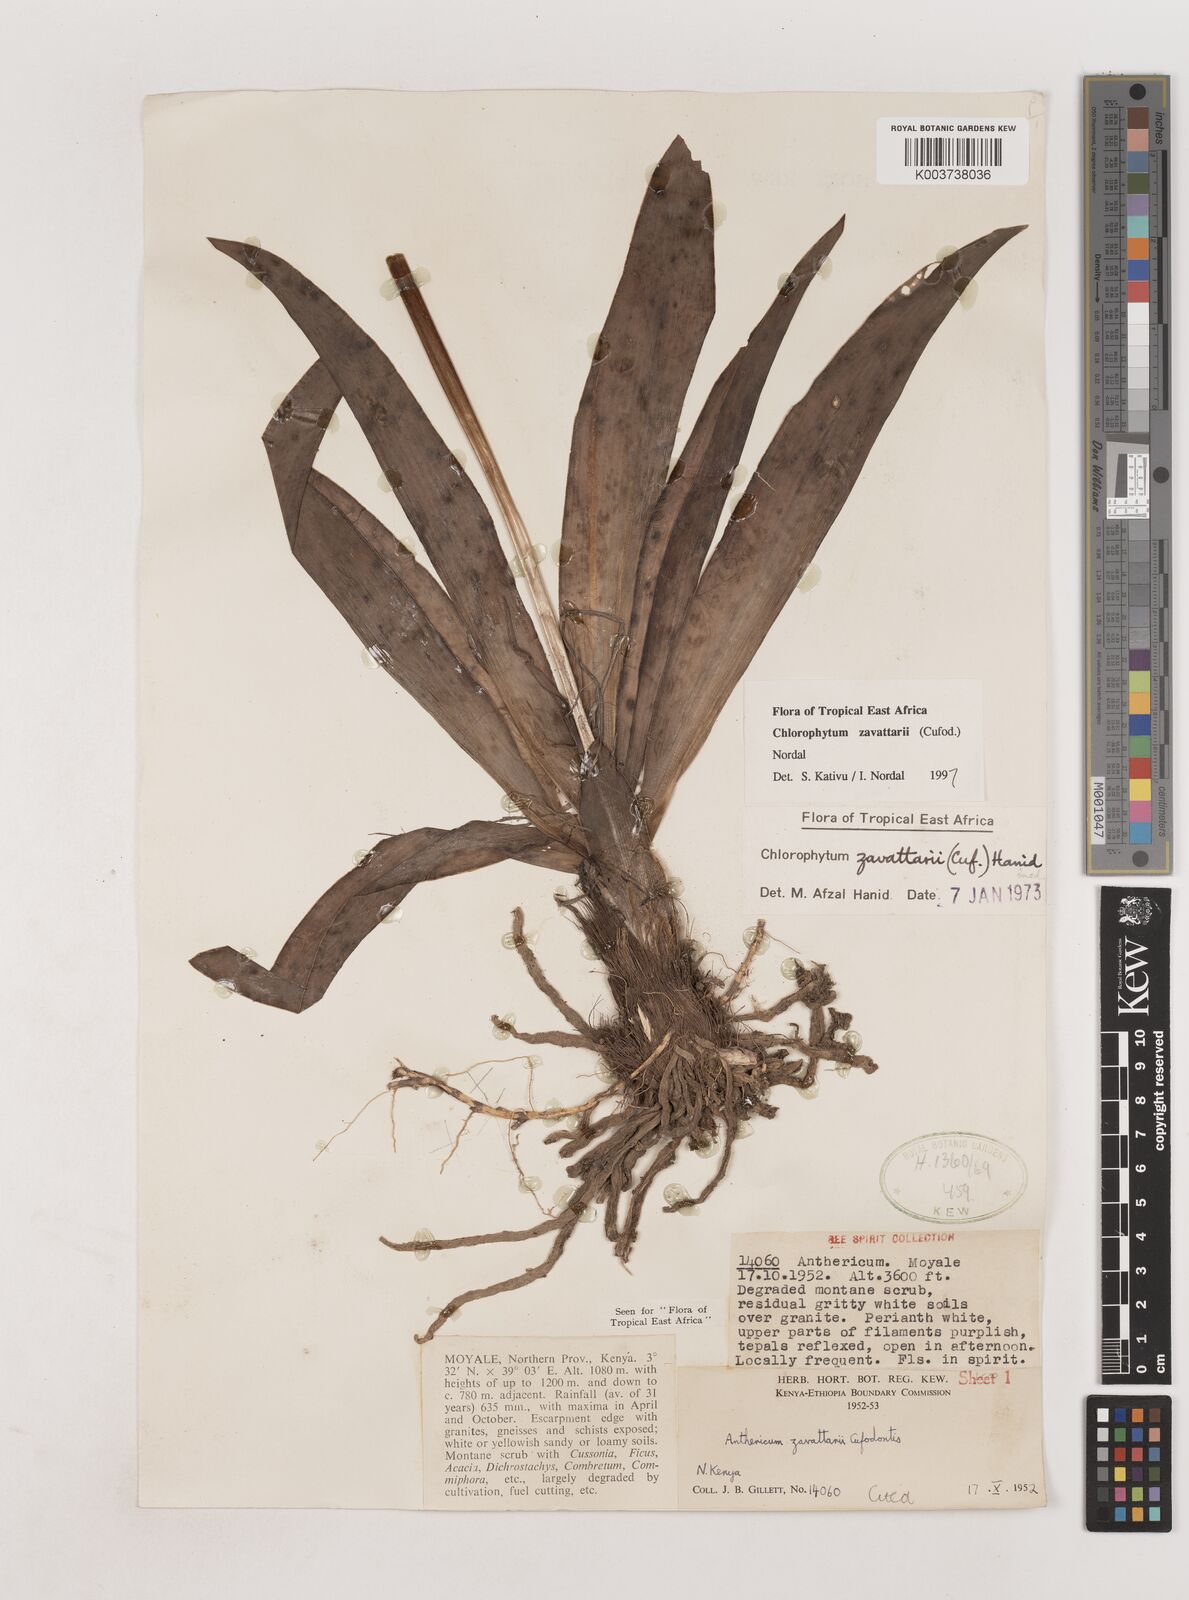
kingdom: Plantae
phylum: Tracheophyta
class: Liliopsida
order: Asparagales
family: Asparagaceae
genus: Chlorophytum
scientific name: Chlorophytum zavattarii
